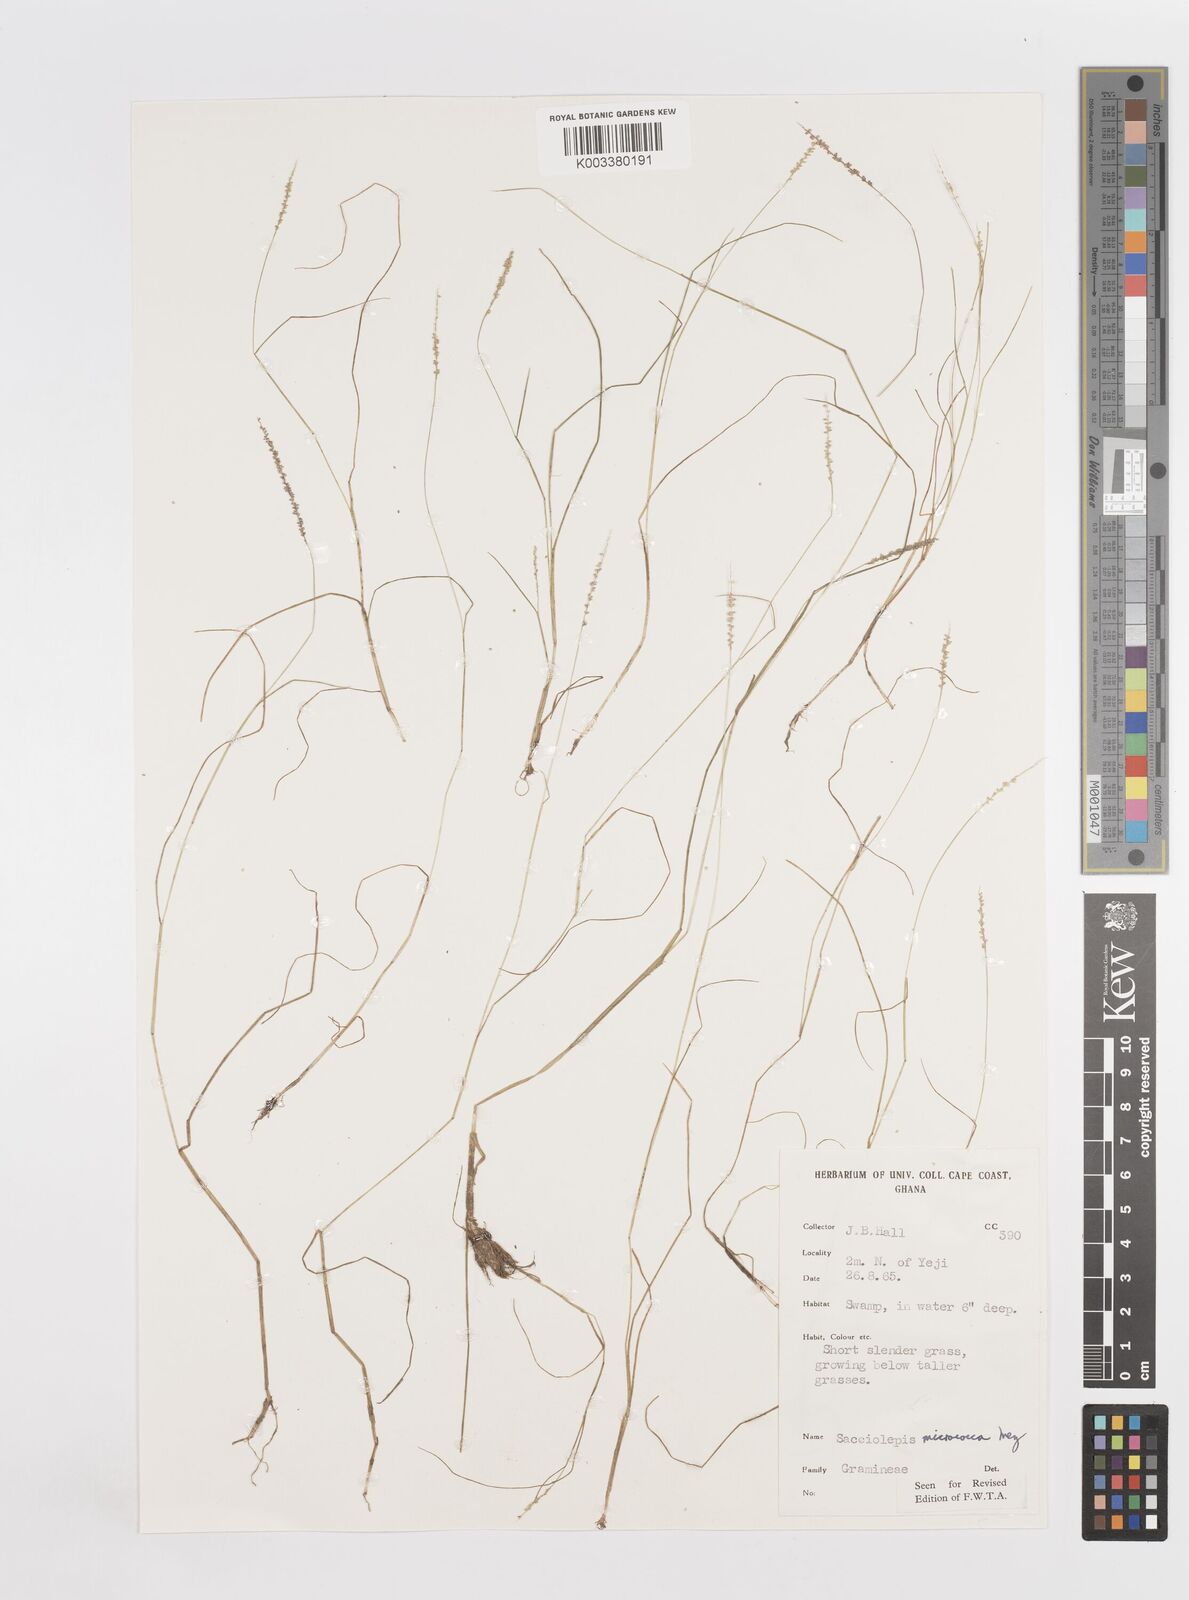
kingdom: Plantae
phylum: Tracheophyta
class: Liliopsida
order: Poales
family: Poaceae
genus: Sacciolepis
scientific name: Sacciolepis micrococca
